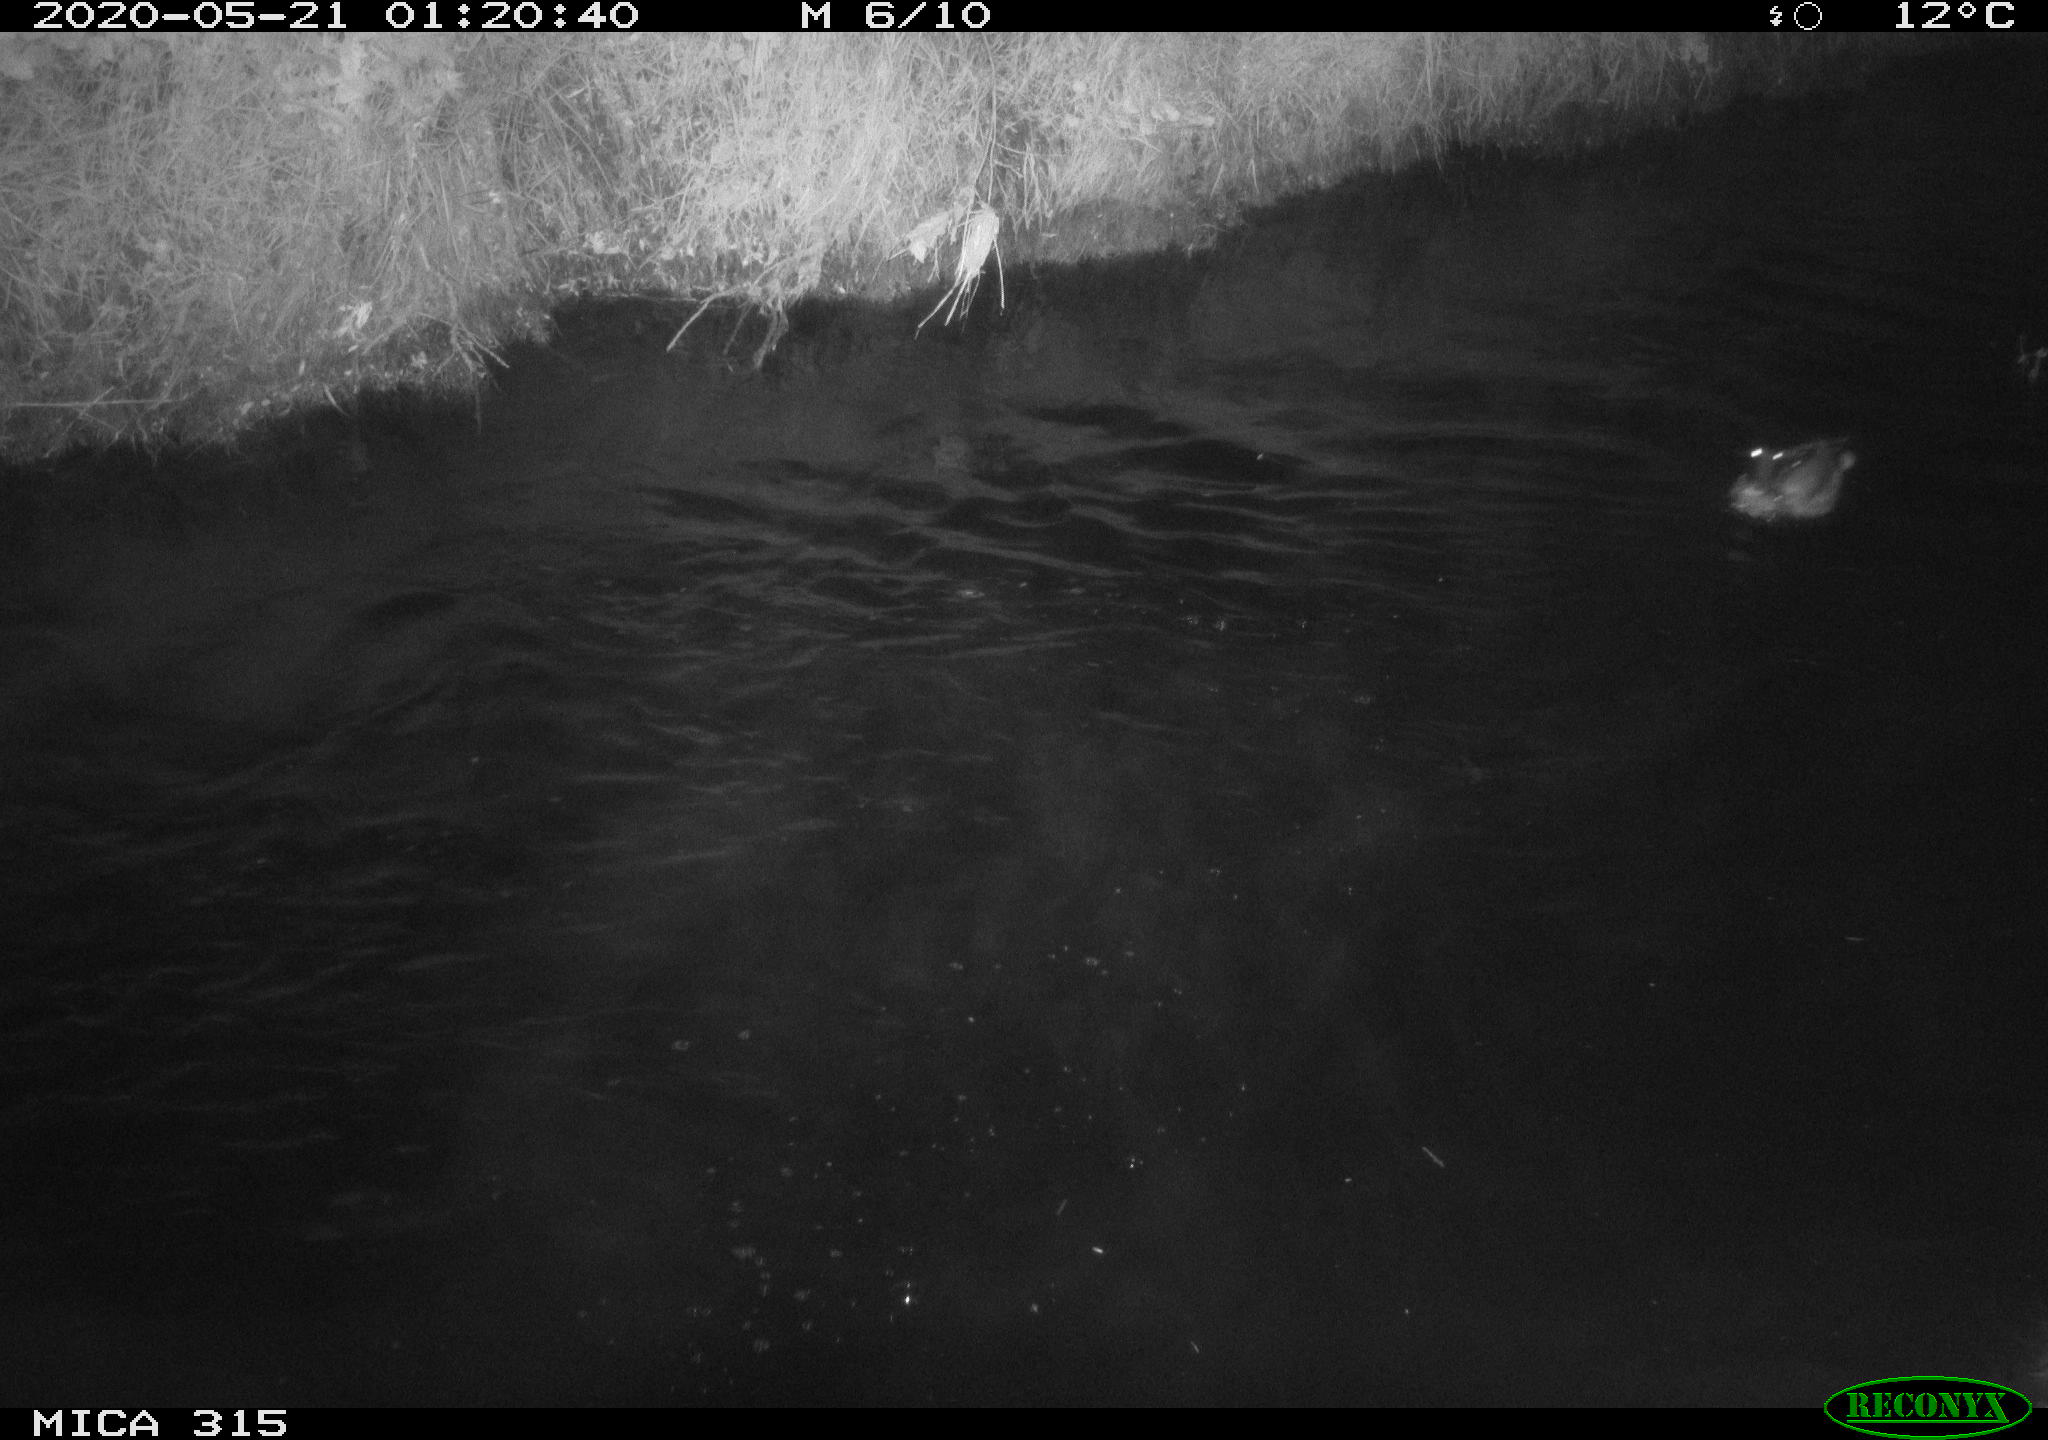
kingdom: Animalia
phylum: Chordata
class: Aves
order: Anseriformes
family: Anatidae
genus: Anas
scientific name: Anas platyrhynchos
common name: Mallard
